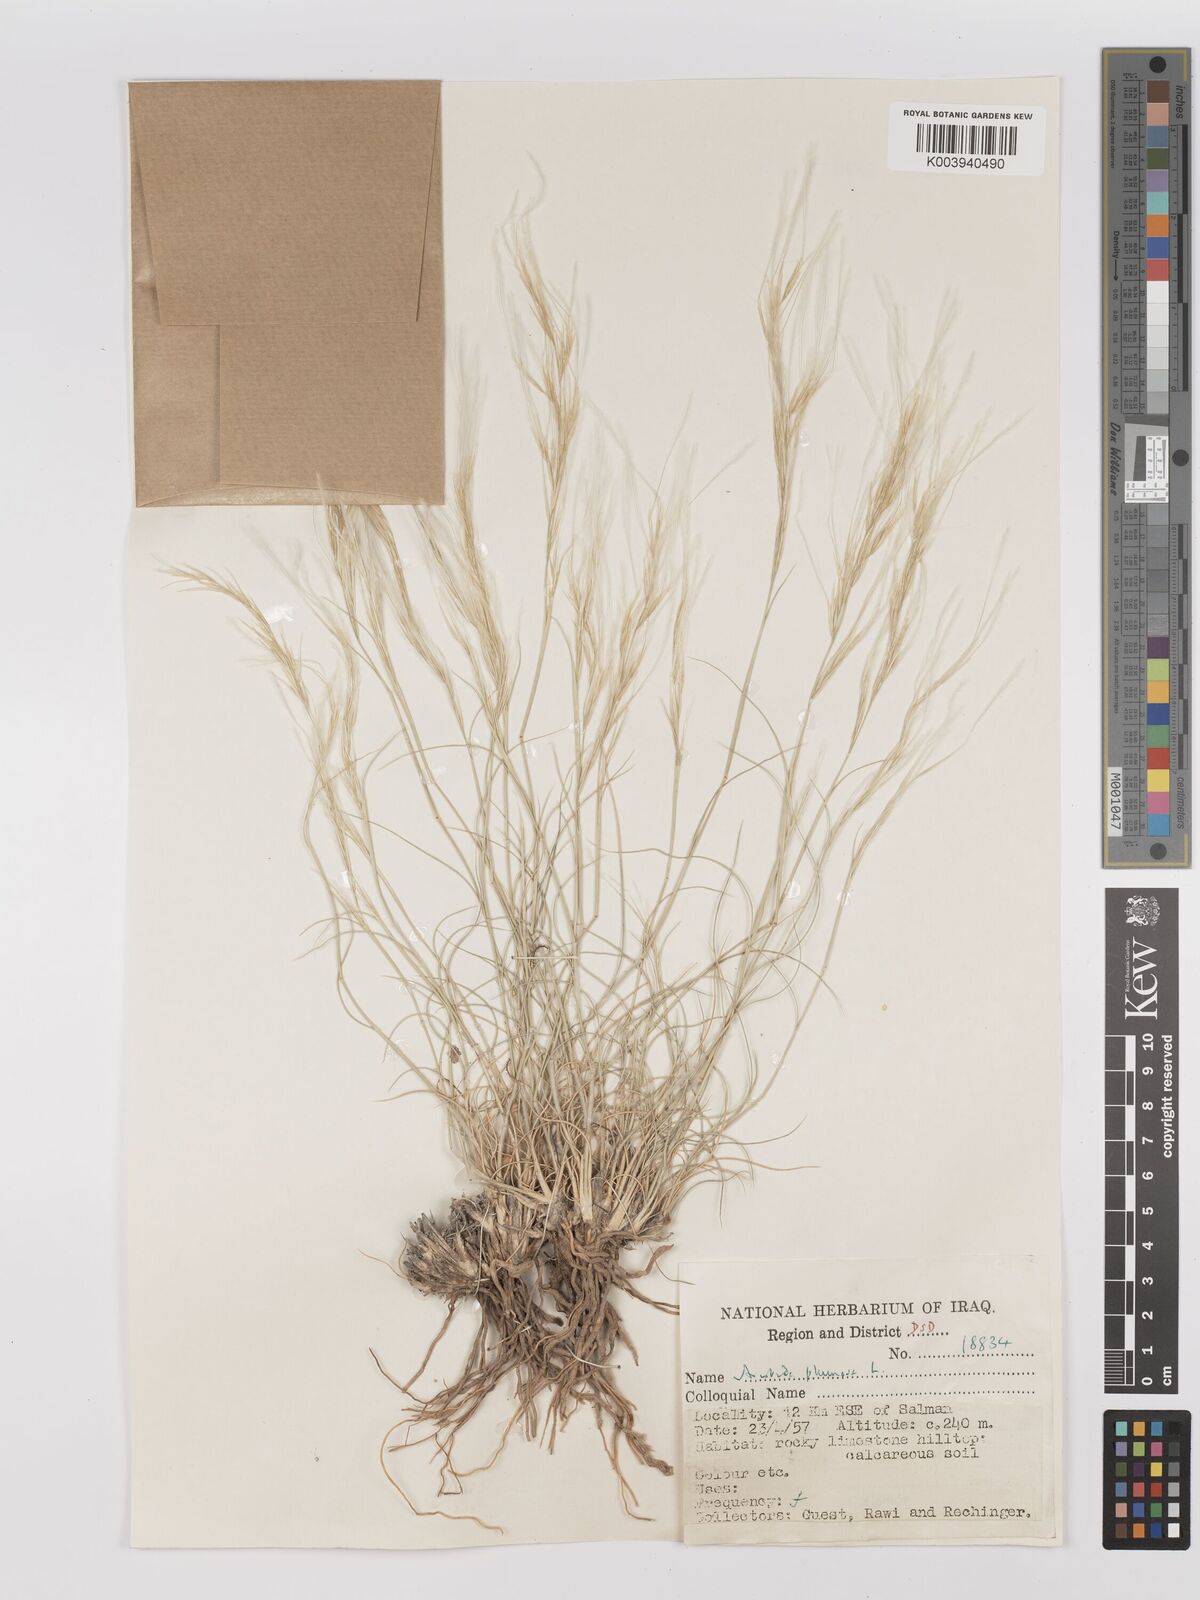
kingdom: Plantae
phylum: Tracheophyta
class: Liliopsida
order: Poales
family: Poaceae
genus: Stipagrostis
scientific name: Stipagrostis plumosa
